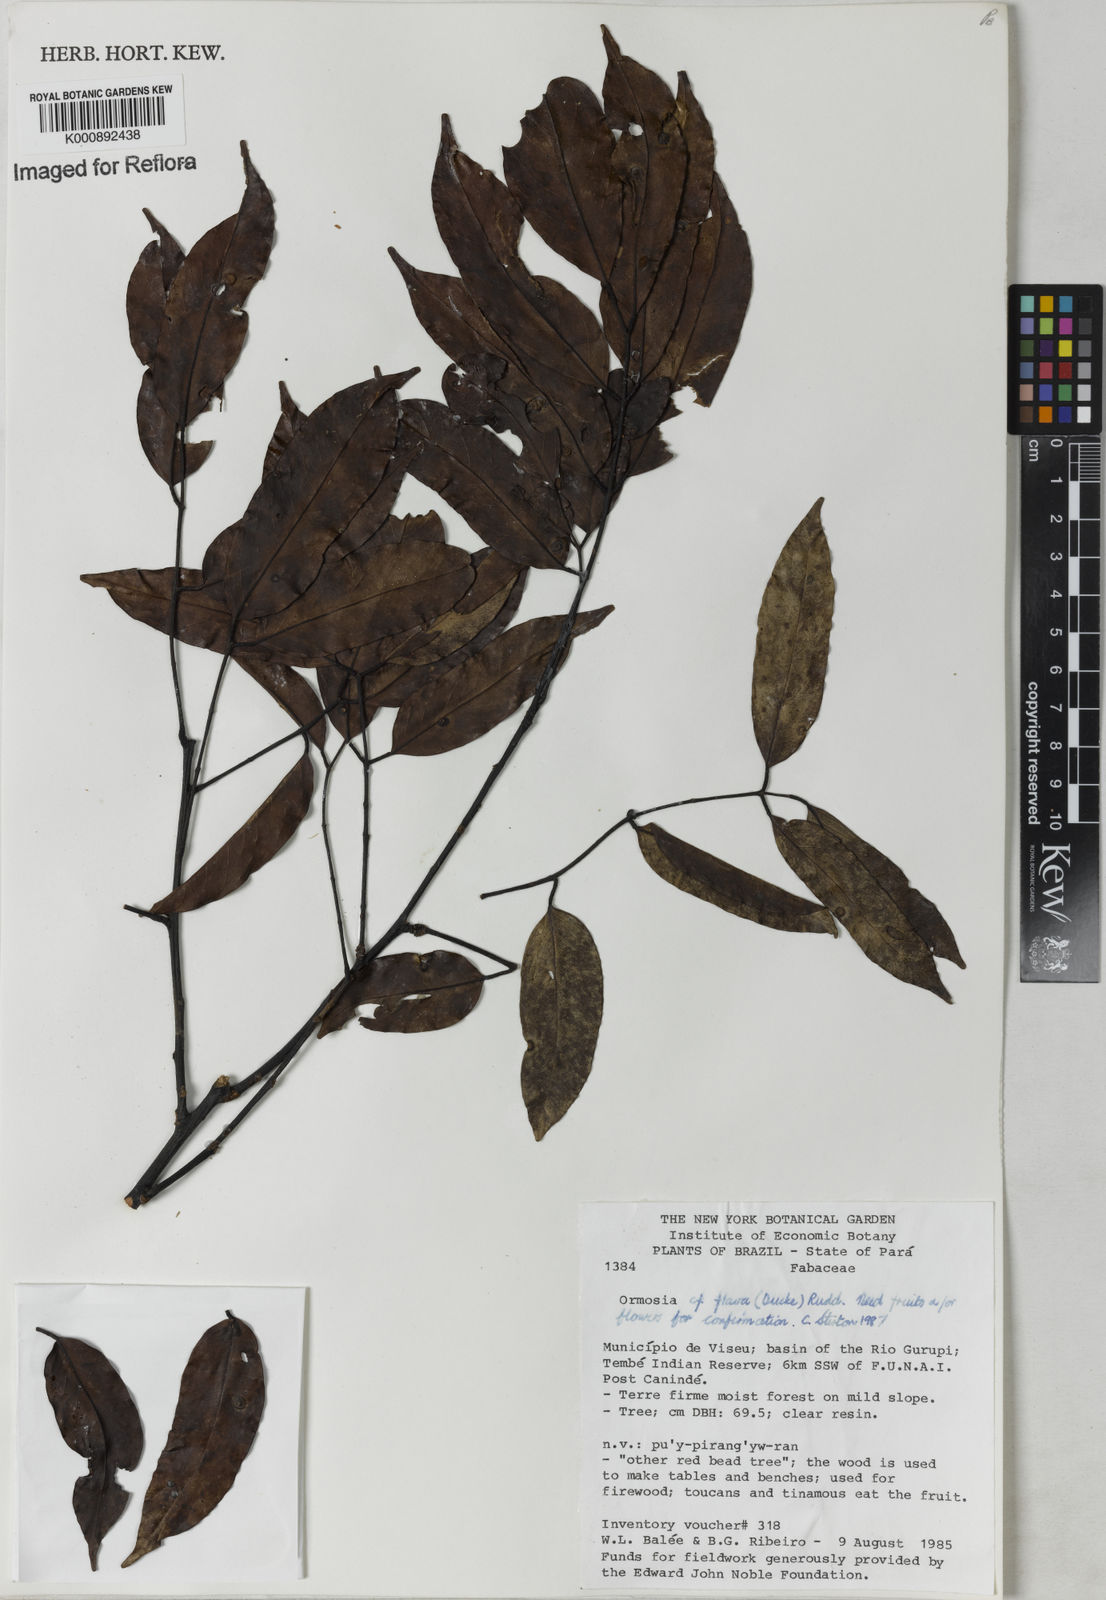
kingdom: Plantae
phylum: Tracheophyta
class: Magnoliopsida
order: Fabales
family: Fabaceae
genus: Ormosia
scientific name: Ormosia flava
